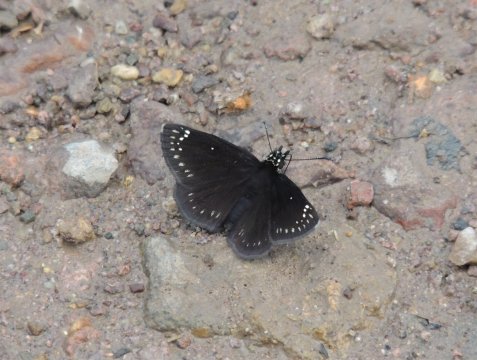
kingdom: Animalia
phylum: Arthropoda
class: Insecta
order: Lepidoptera
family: Hesperiidae
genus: Pholisora
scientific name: Pholisora catullus
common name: Common Sootywing
